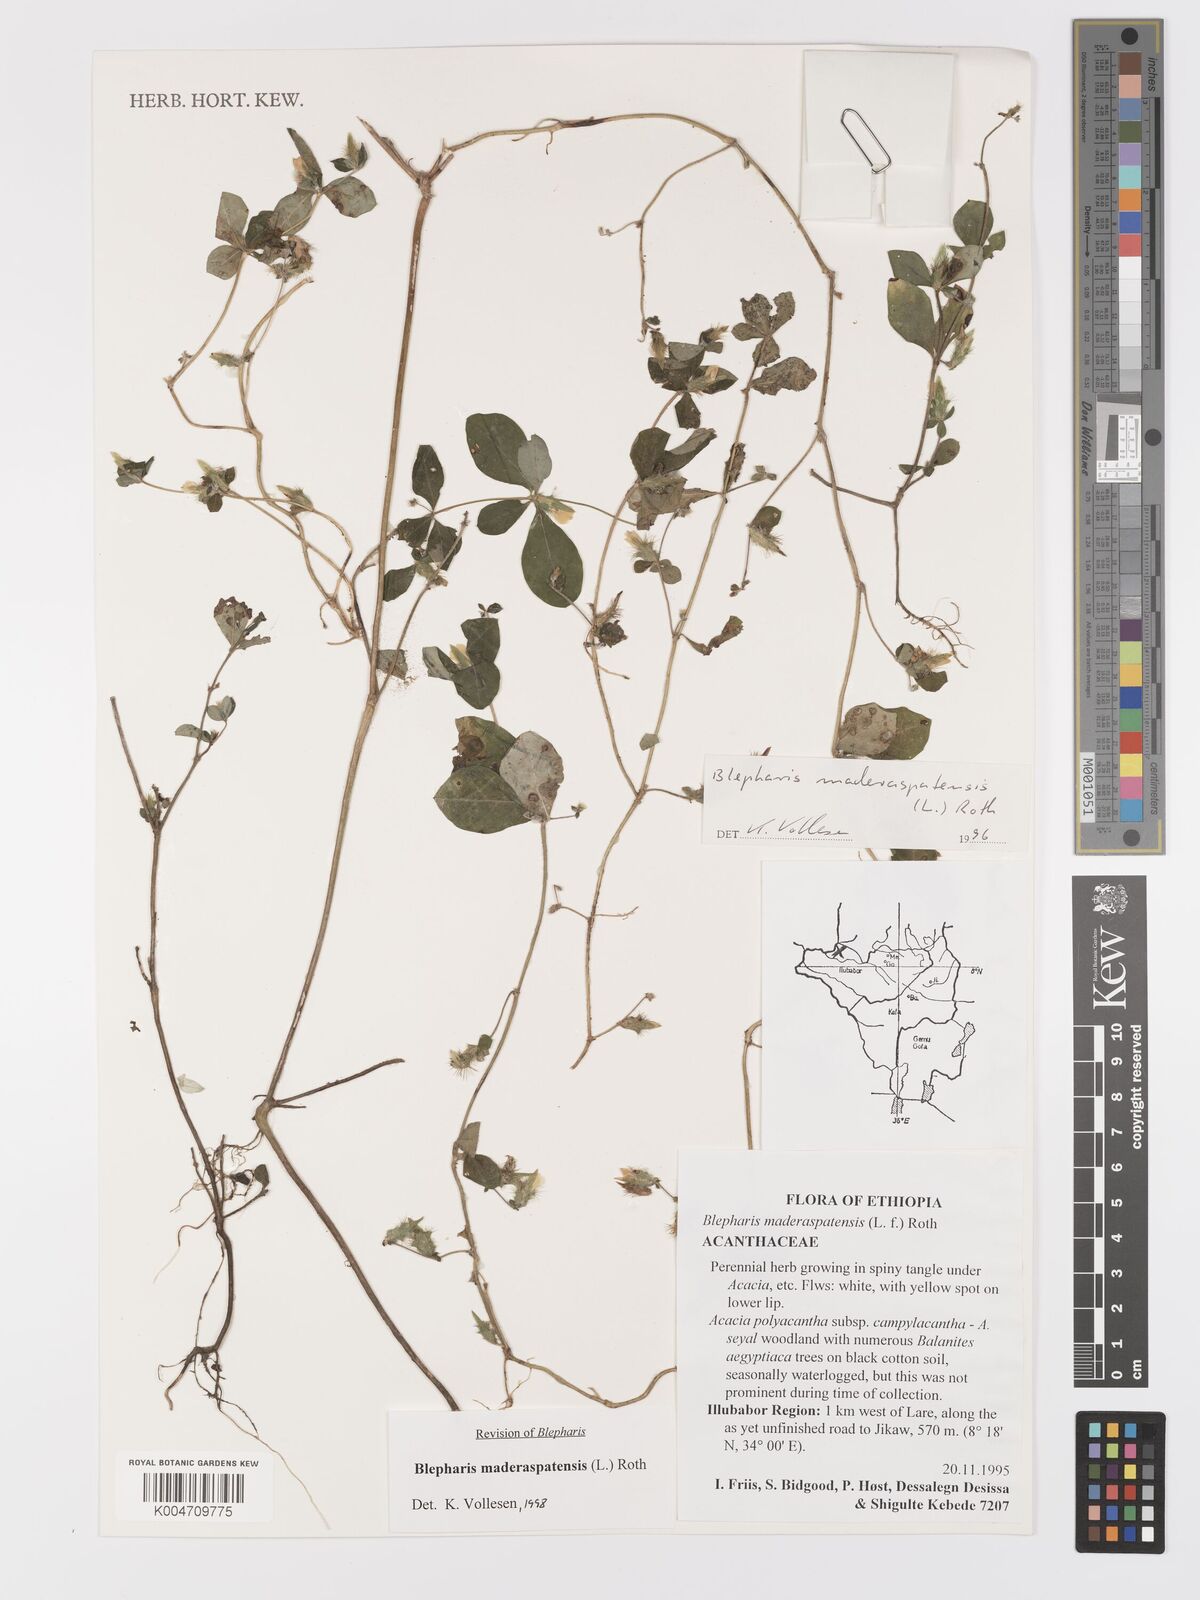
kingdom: Plantae
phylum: Tracheophyta
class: Magnoliopsida
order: Lamiales
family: Acanthaceae
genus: Blepharis
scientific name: Blepharis maderaspatensis
